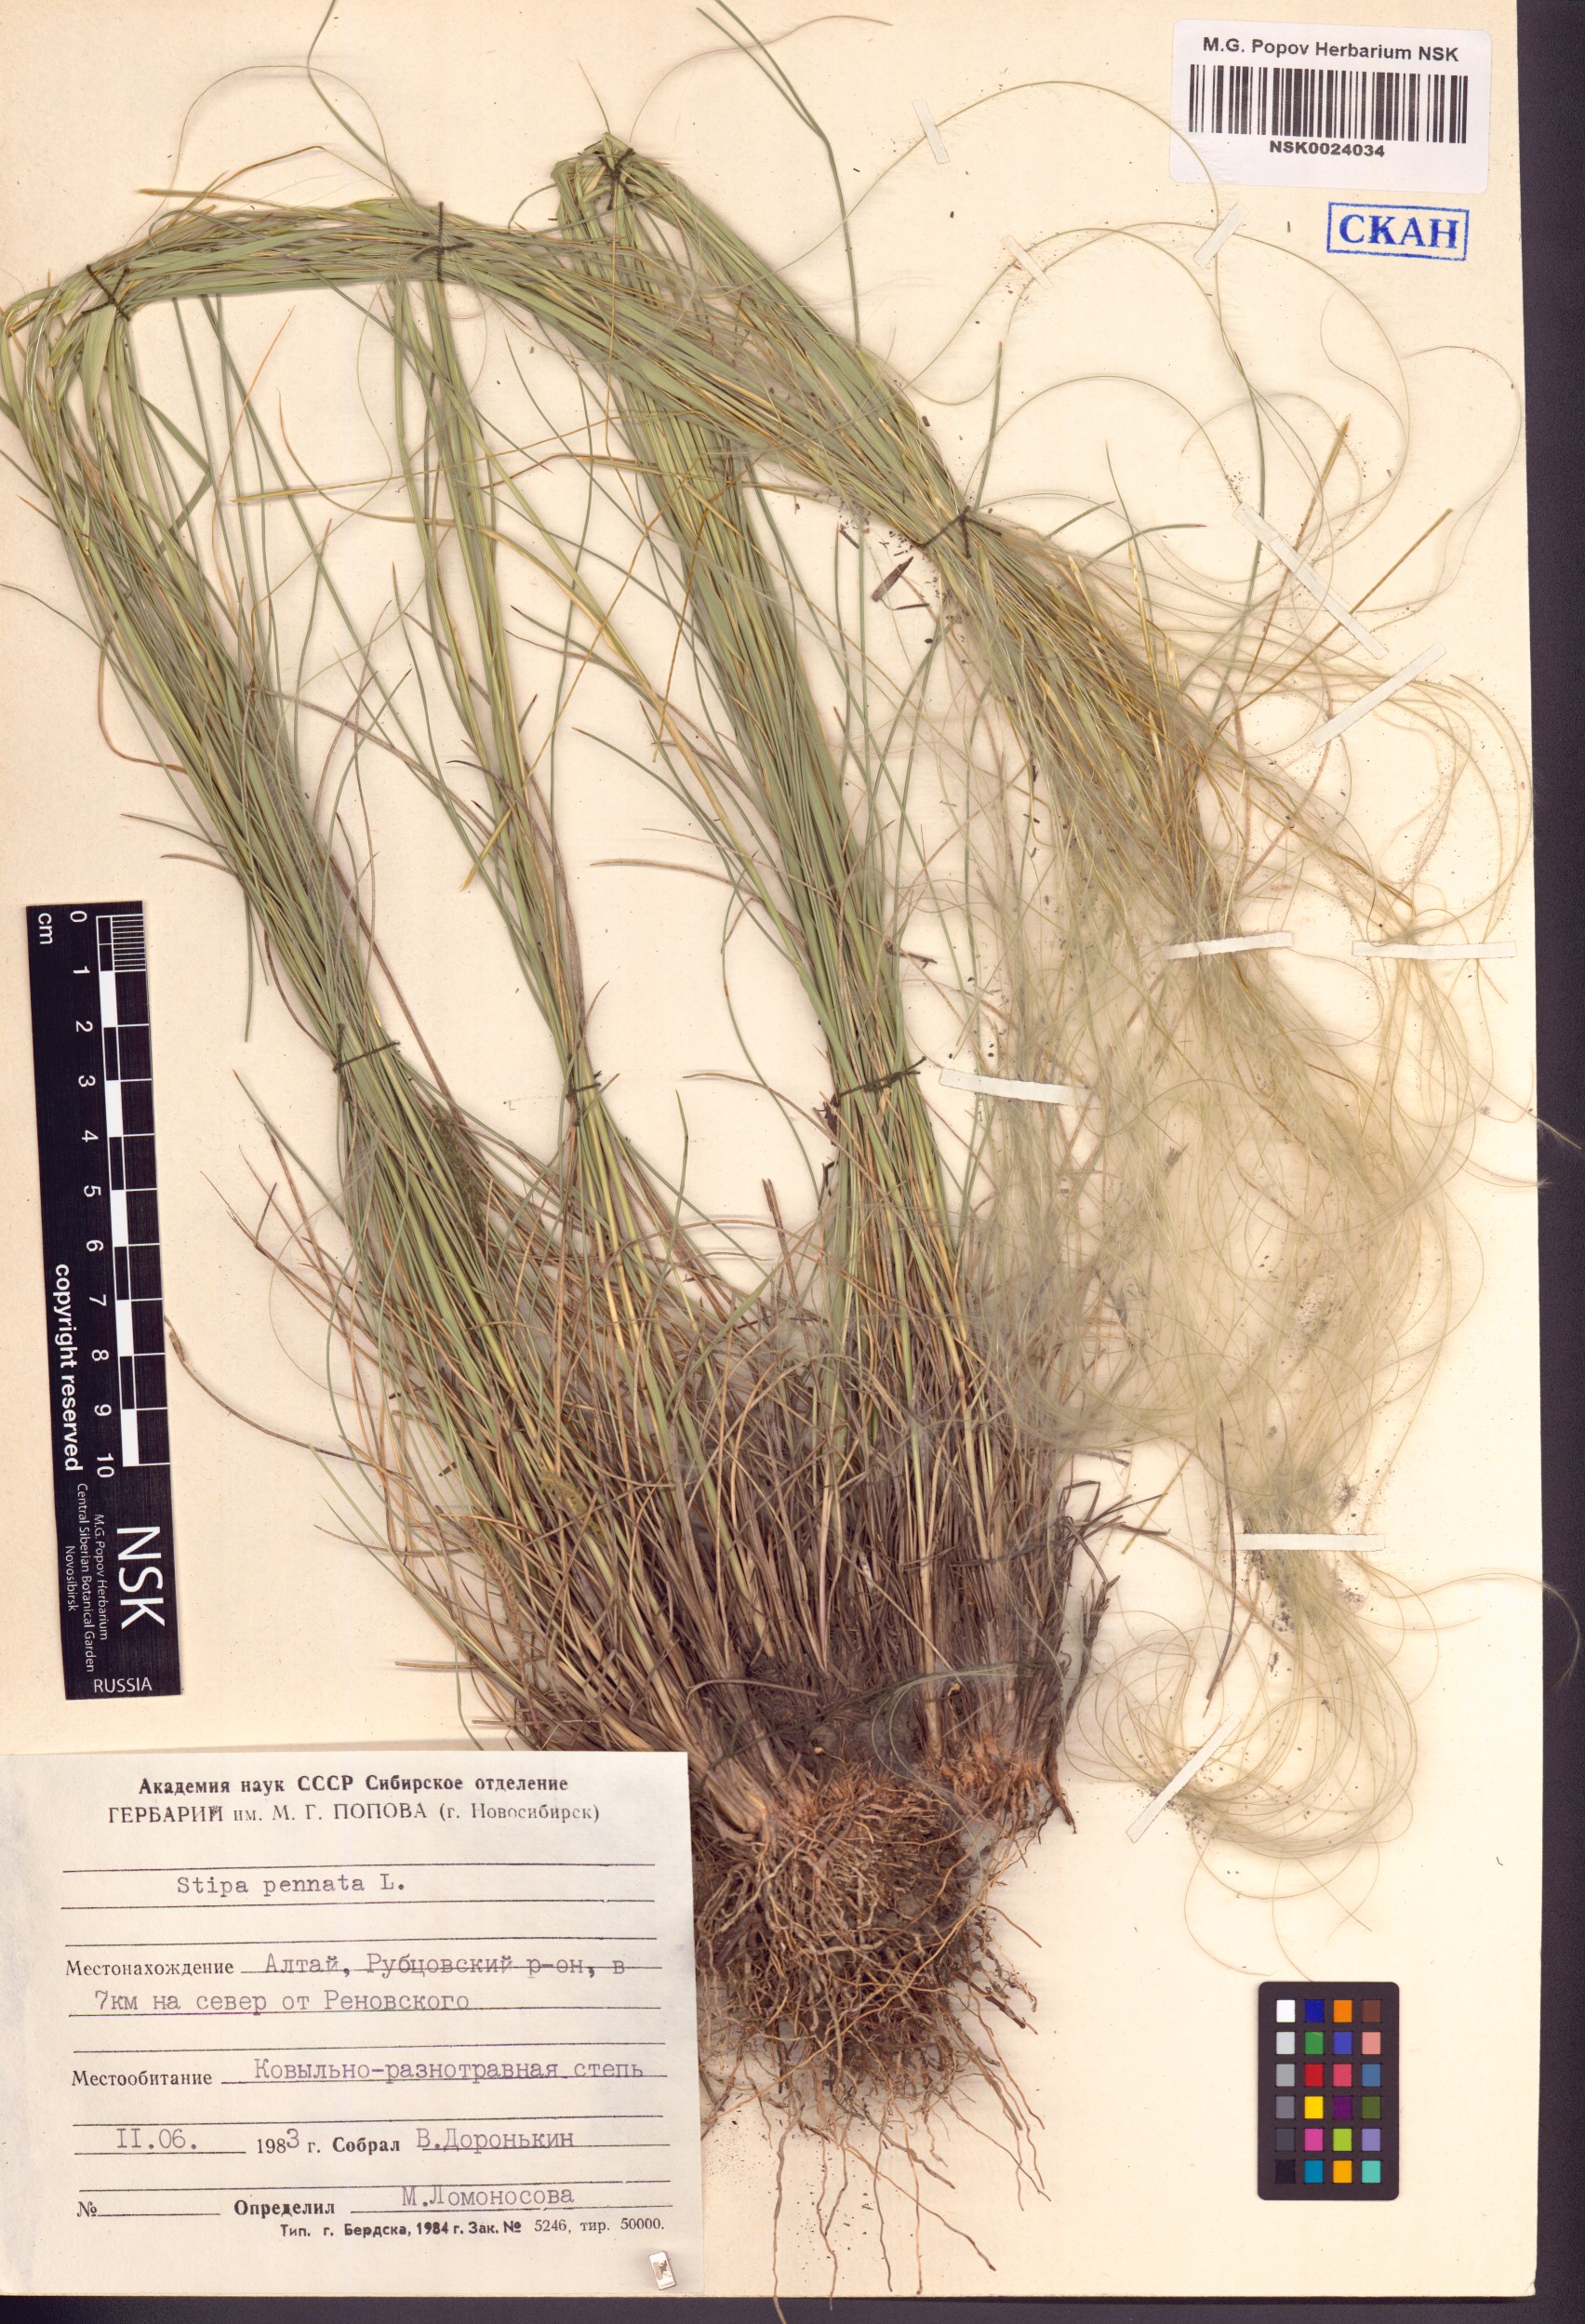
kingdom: Plantae
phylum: Tracheophyta
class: Liliopsida
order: Poales
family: Poaceae
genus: Stipa
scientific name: Stipa pennata
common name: European feather grass
